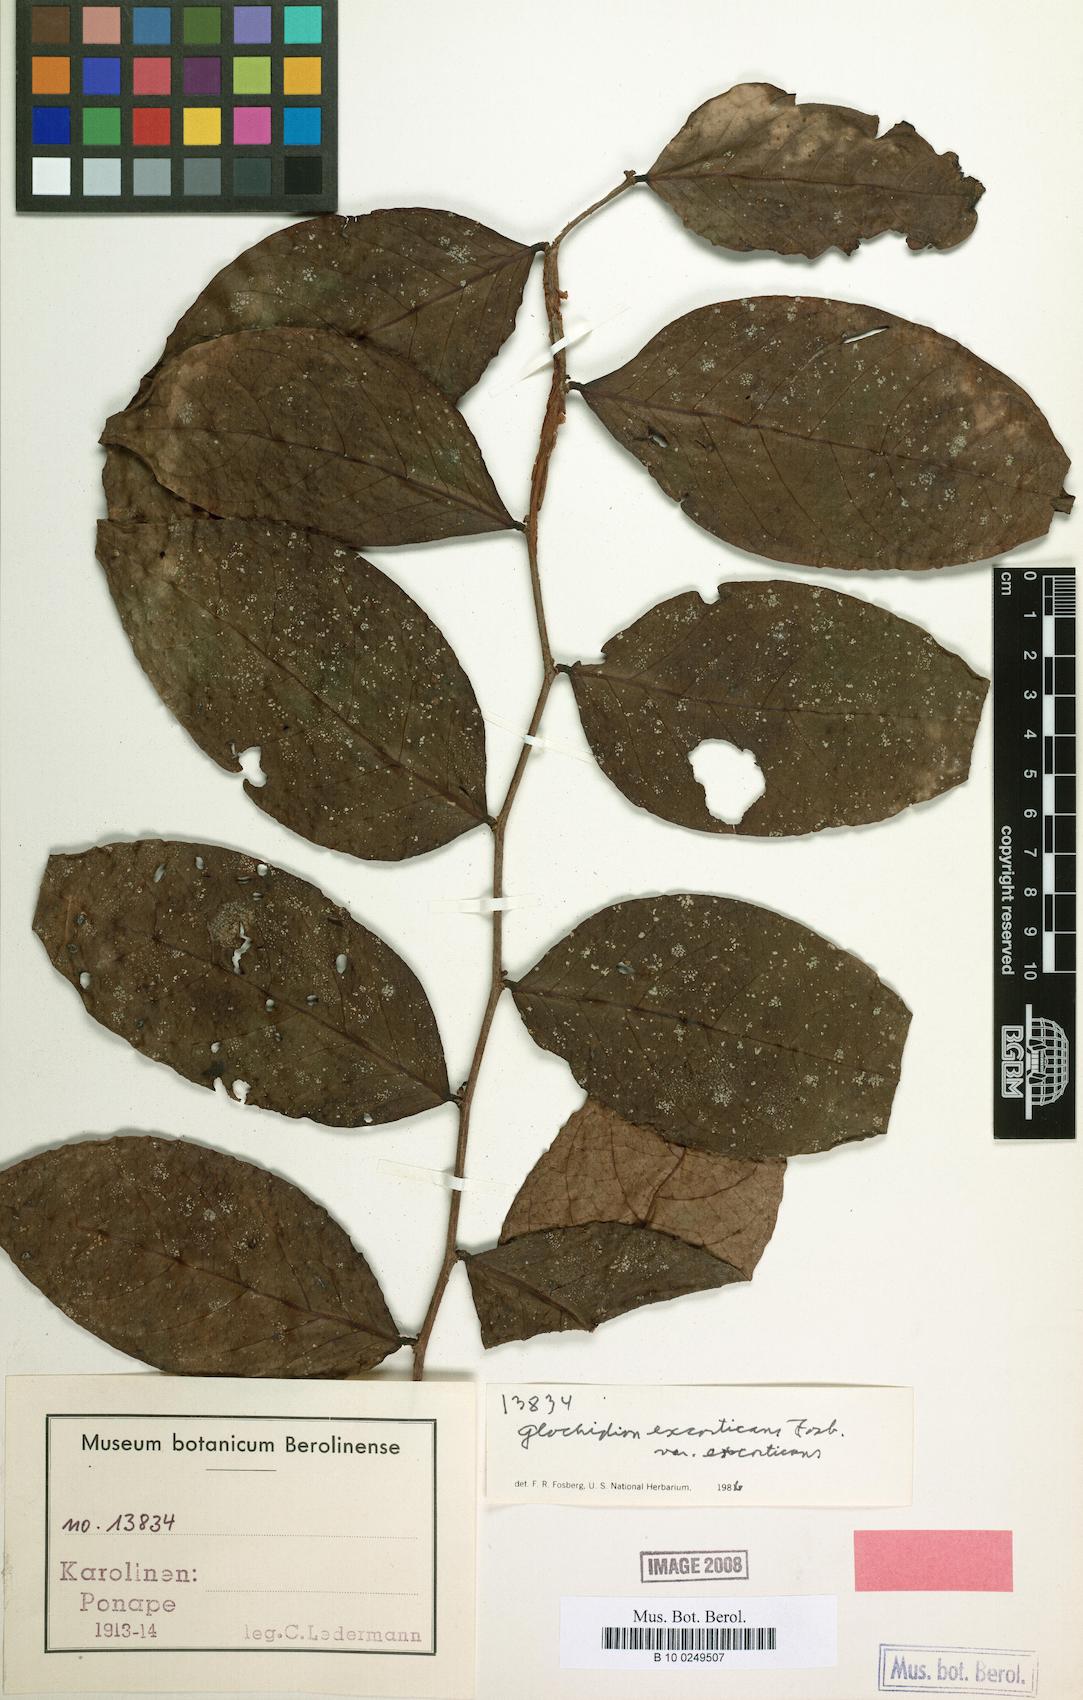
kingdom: Plantae
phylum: Tracheophyta
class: Magnoliopsida
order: Malpighiales
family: Phyllanthaceae
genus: Glochidion
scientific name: Glochidion puberulum
